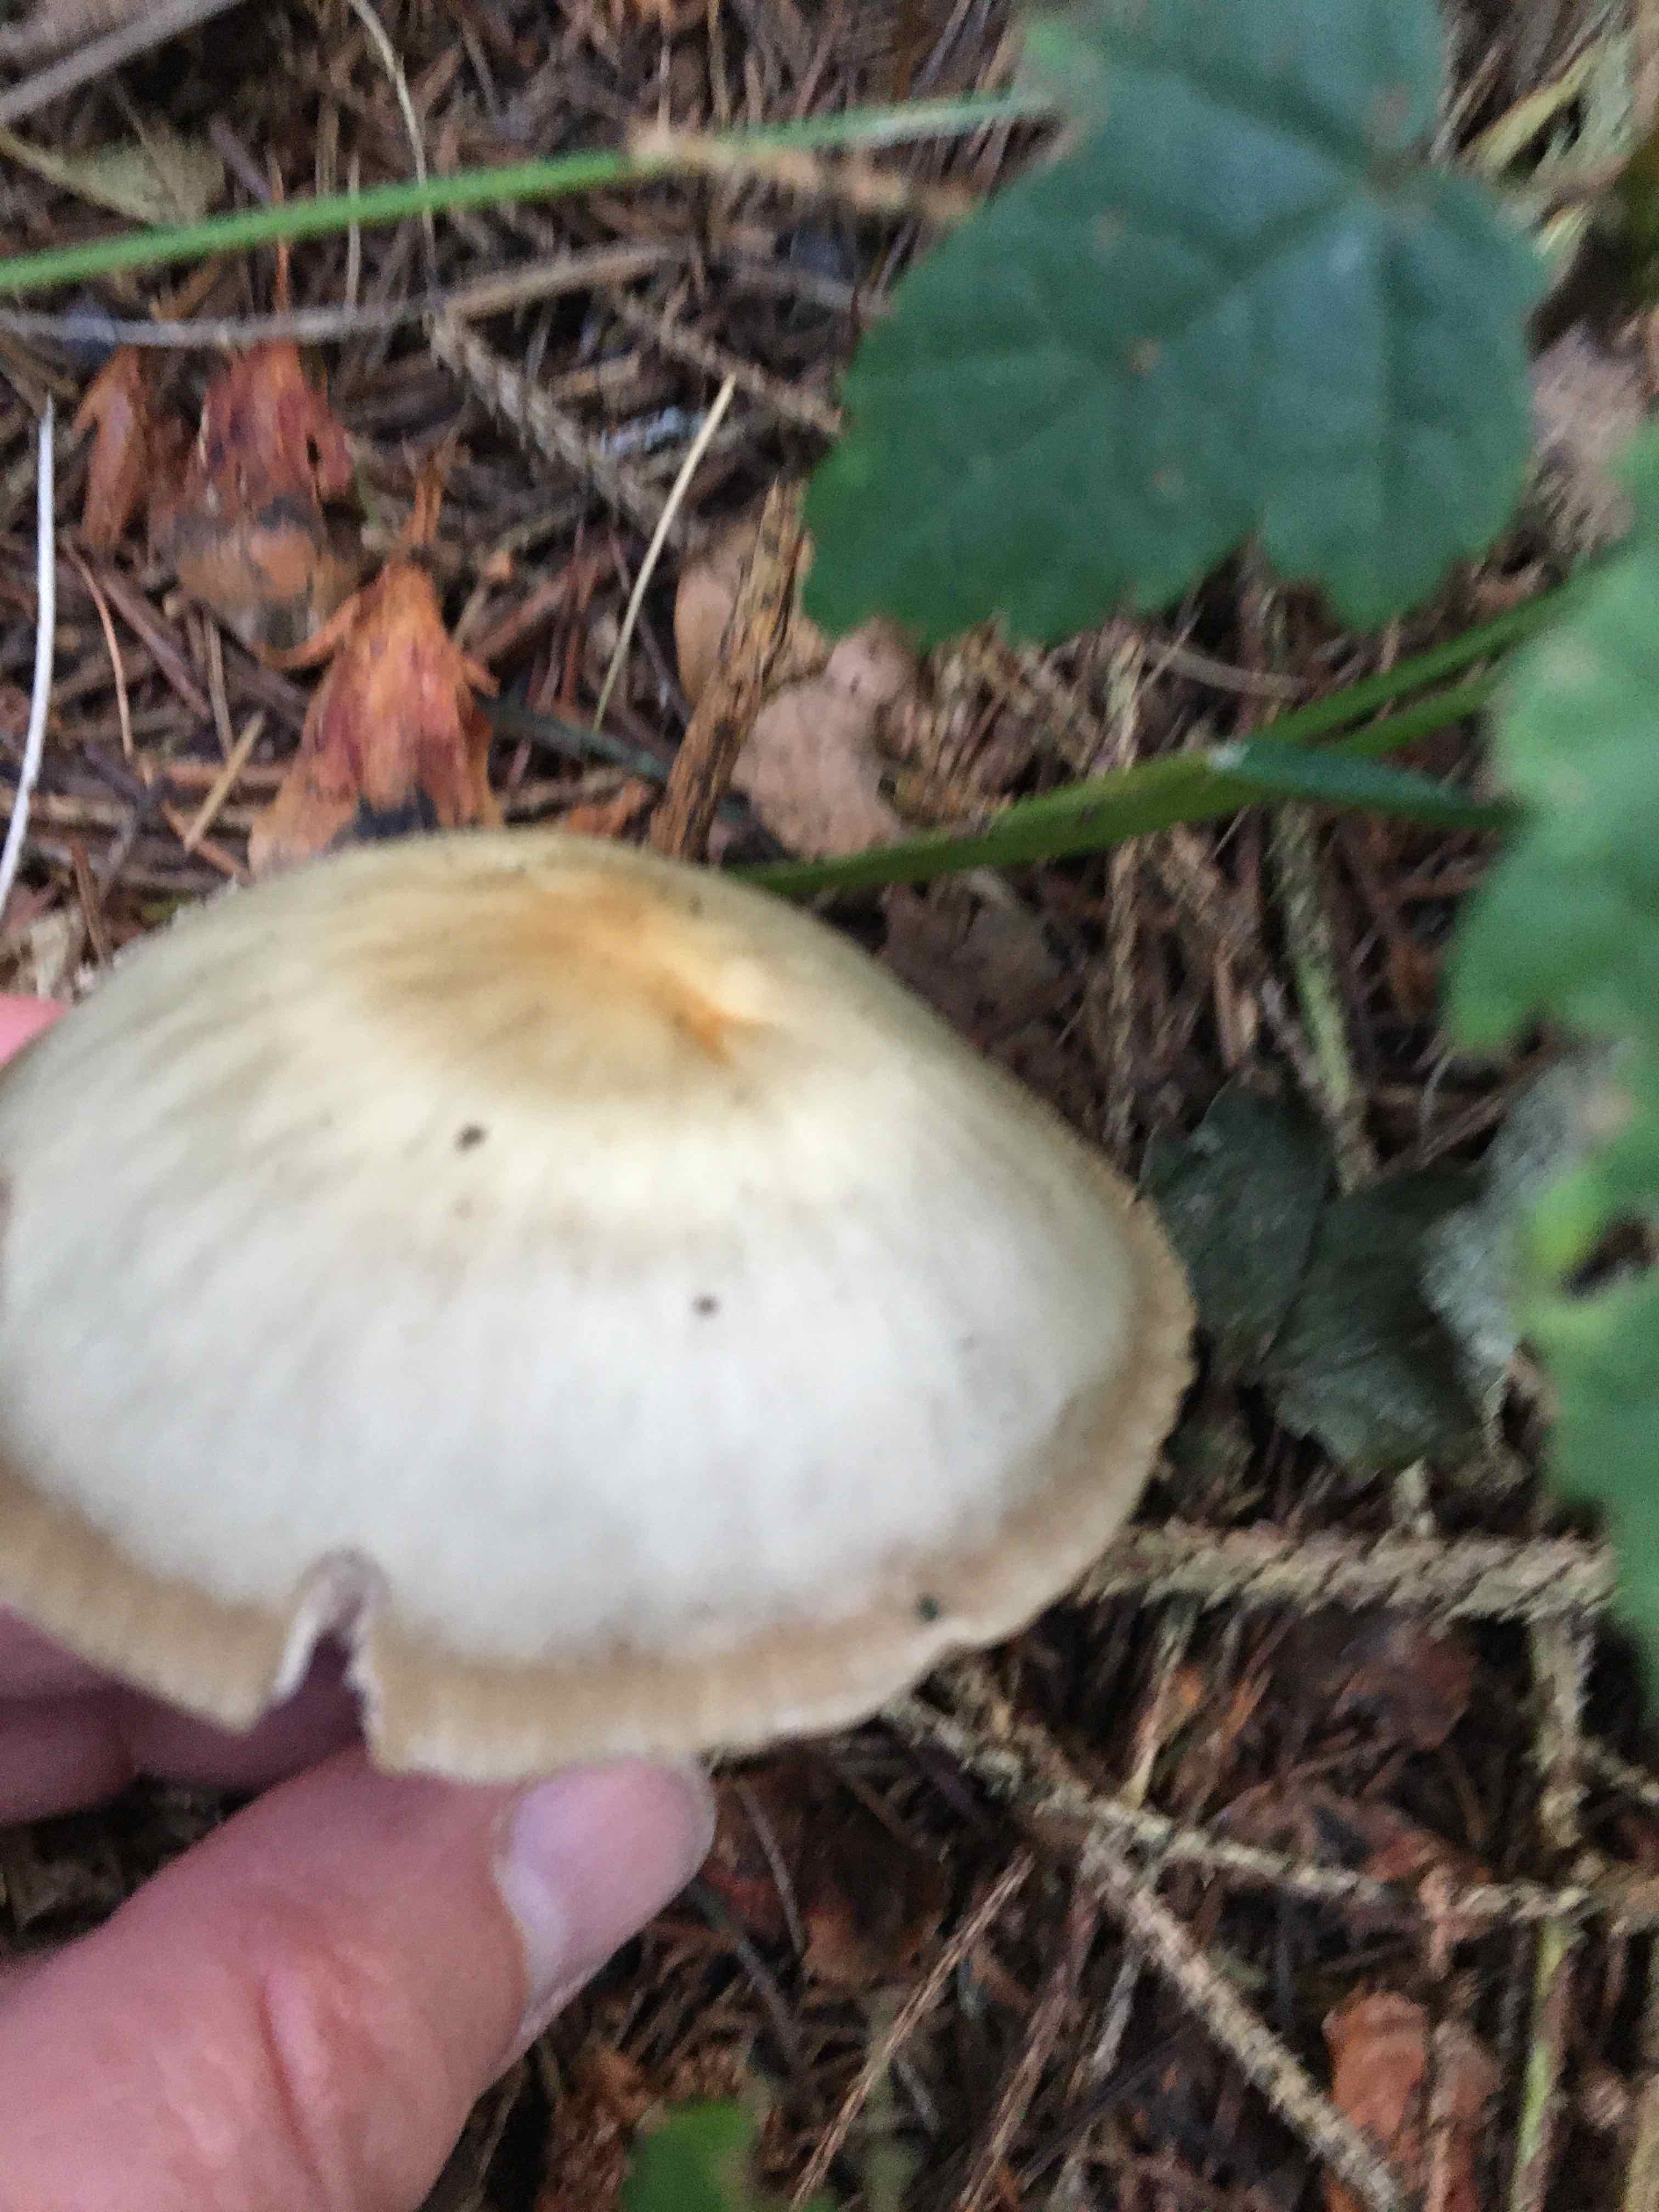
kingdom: Fungi
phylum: Basidiomycota
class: Agaricomycetes
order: Agaricales
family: Omphalotaceae
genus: Rhodocollybia
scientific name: Rhodocollybia asema
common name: horngrå fladhat
